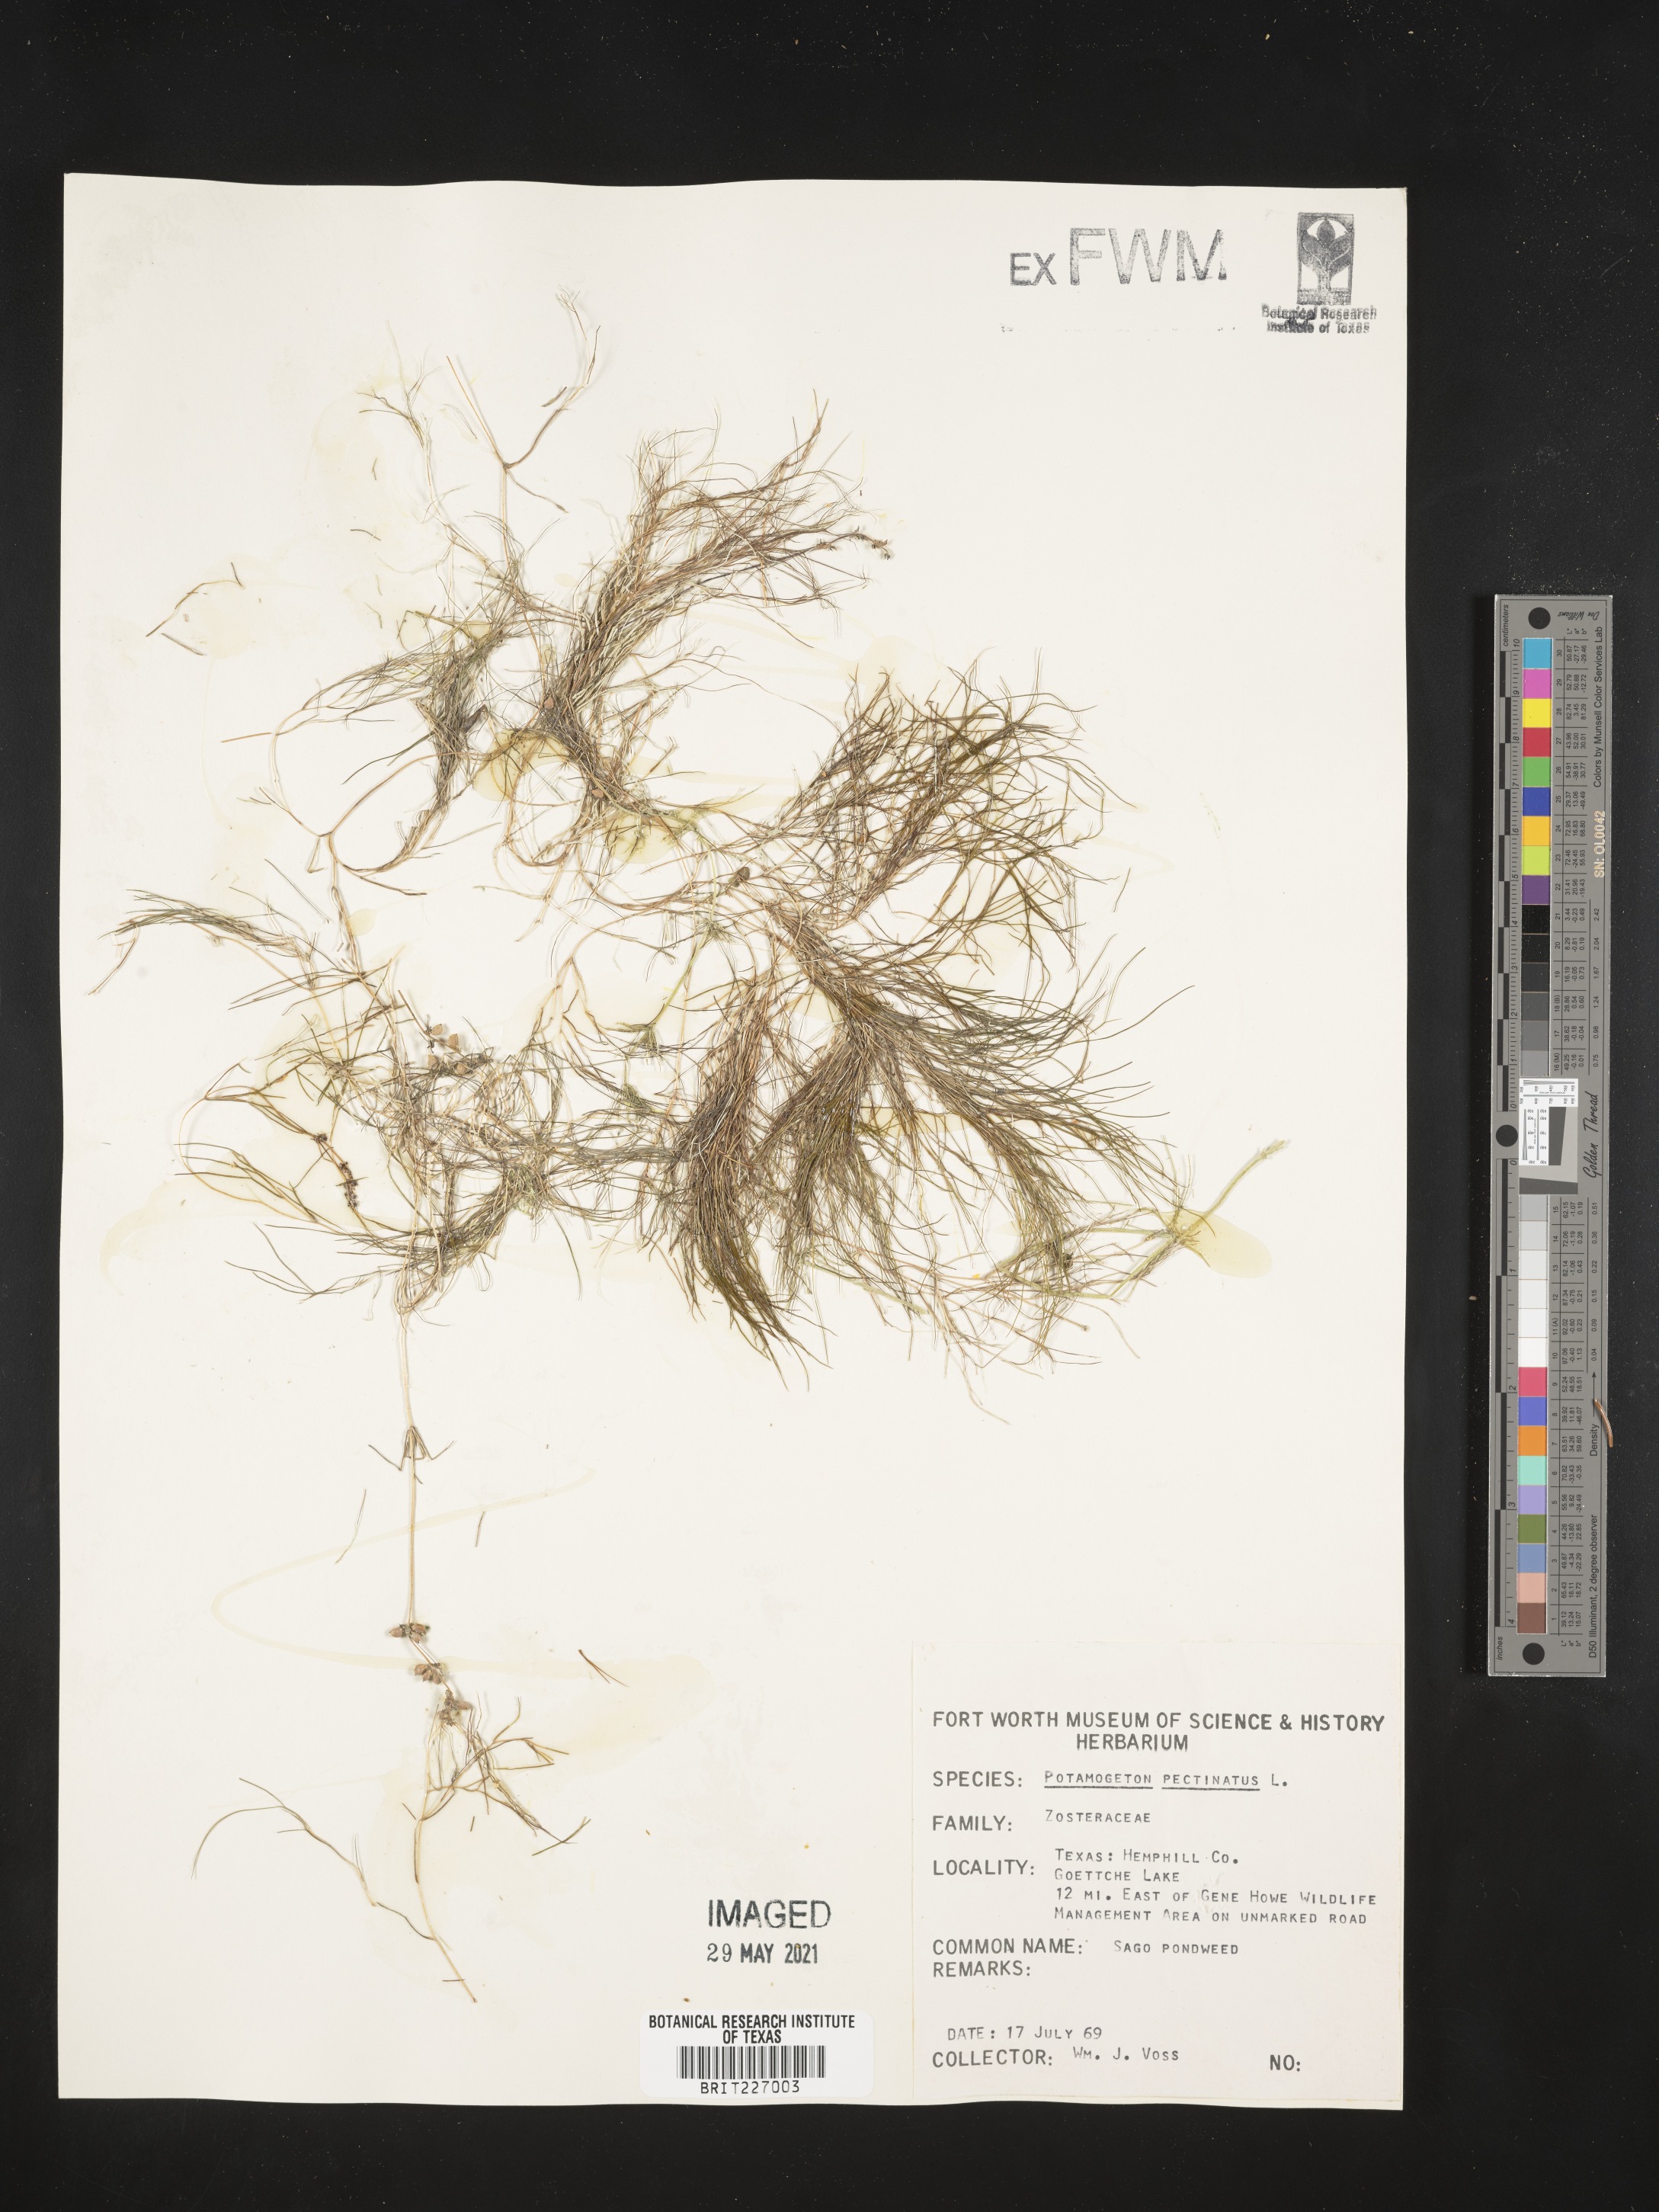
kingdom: Plantae
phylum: Tracheophyta
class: Liliopsida
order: Alismatales
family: Potamogetonaceae
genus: Stuckenia
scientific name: Stuckenia pectinata
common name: Sago pondweed
